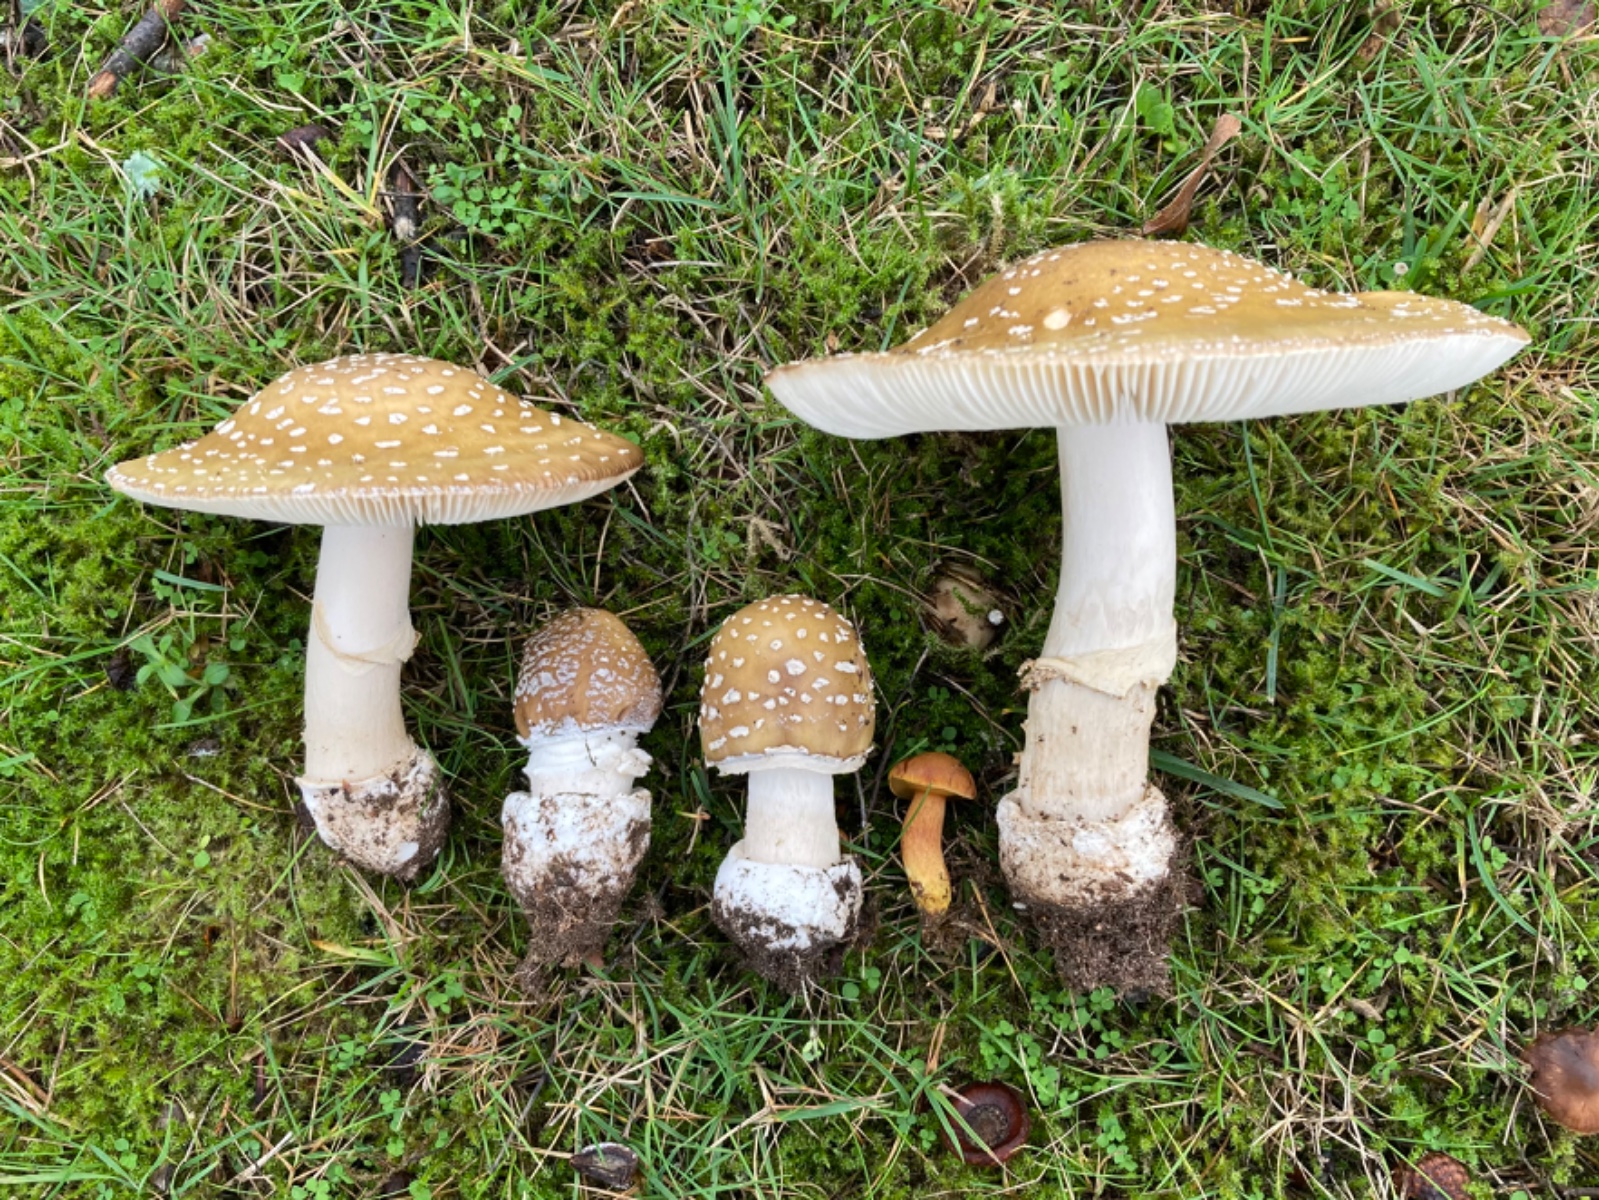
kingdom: Fungi
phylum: Basidiomycota
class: Agaricomycetes
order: Agaricales
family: Amanitaceae
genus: Amanita
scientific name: Amanita pantherina
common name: panter-fluesvamp
